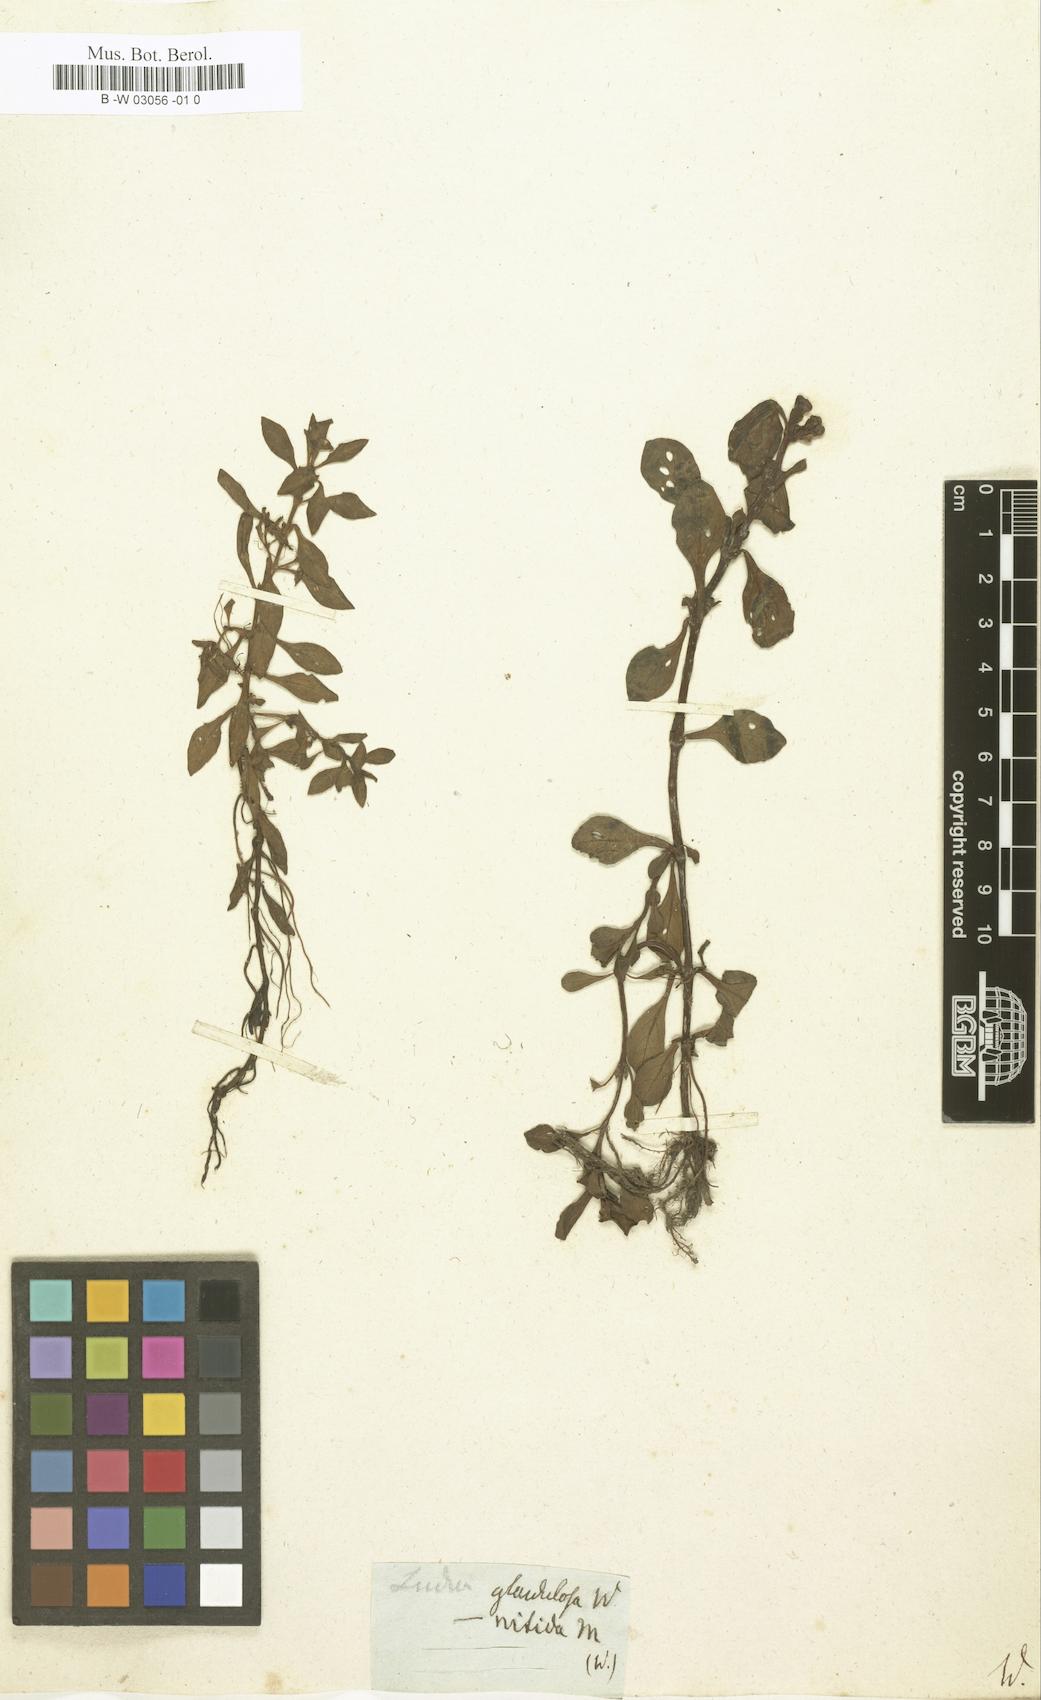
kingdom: Plantae
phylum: Tracheophyta
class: Magnoliopsida
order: Myrtales
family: Onagraceae
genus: Ludwigia
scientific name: Ludwigia glandulosa
